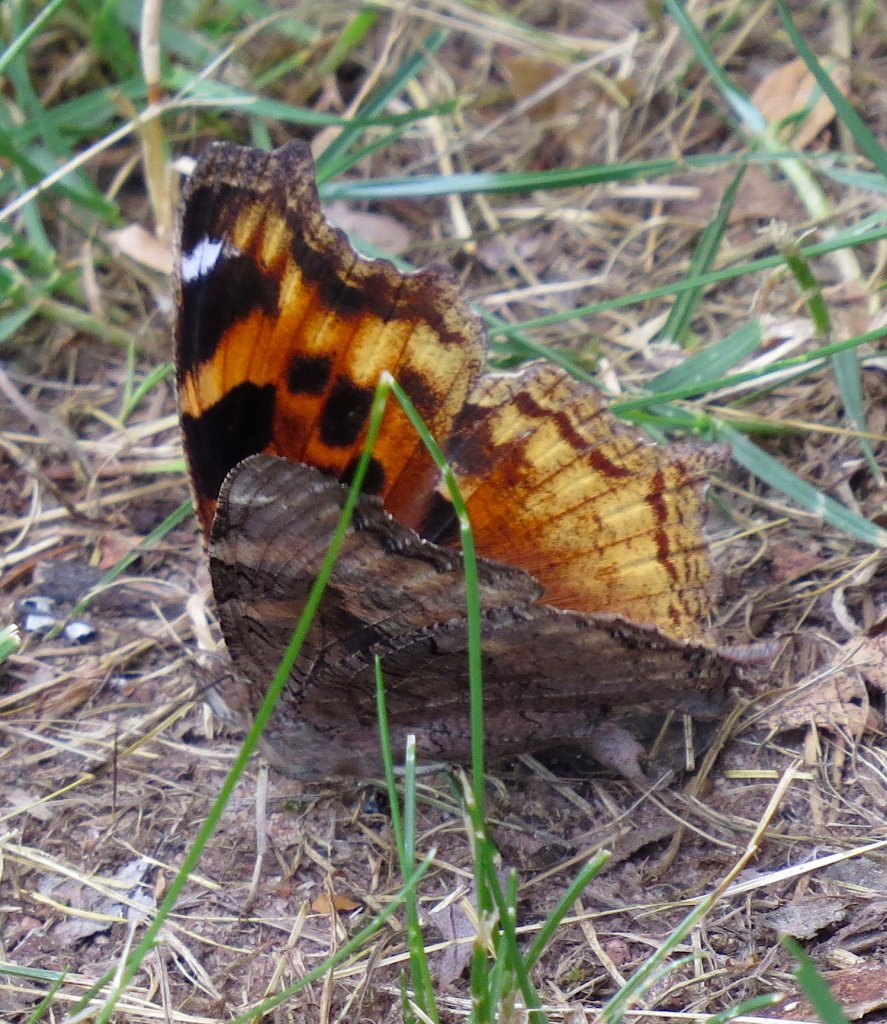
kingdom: Animalia
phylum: Arthropoda
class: Insecta
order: Lepidoptera
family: Nymphalidae
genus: Polygonia
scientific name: Polygonia vaualbum
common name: Compton Tortoiseshell
